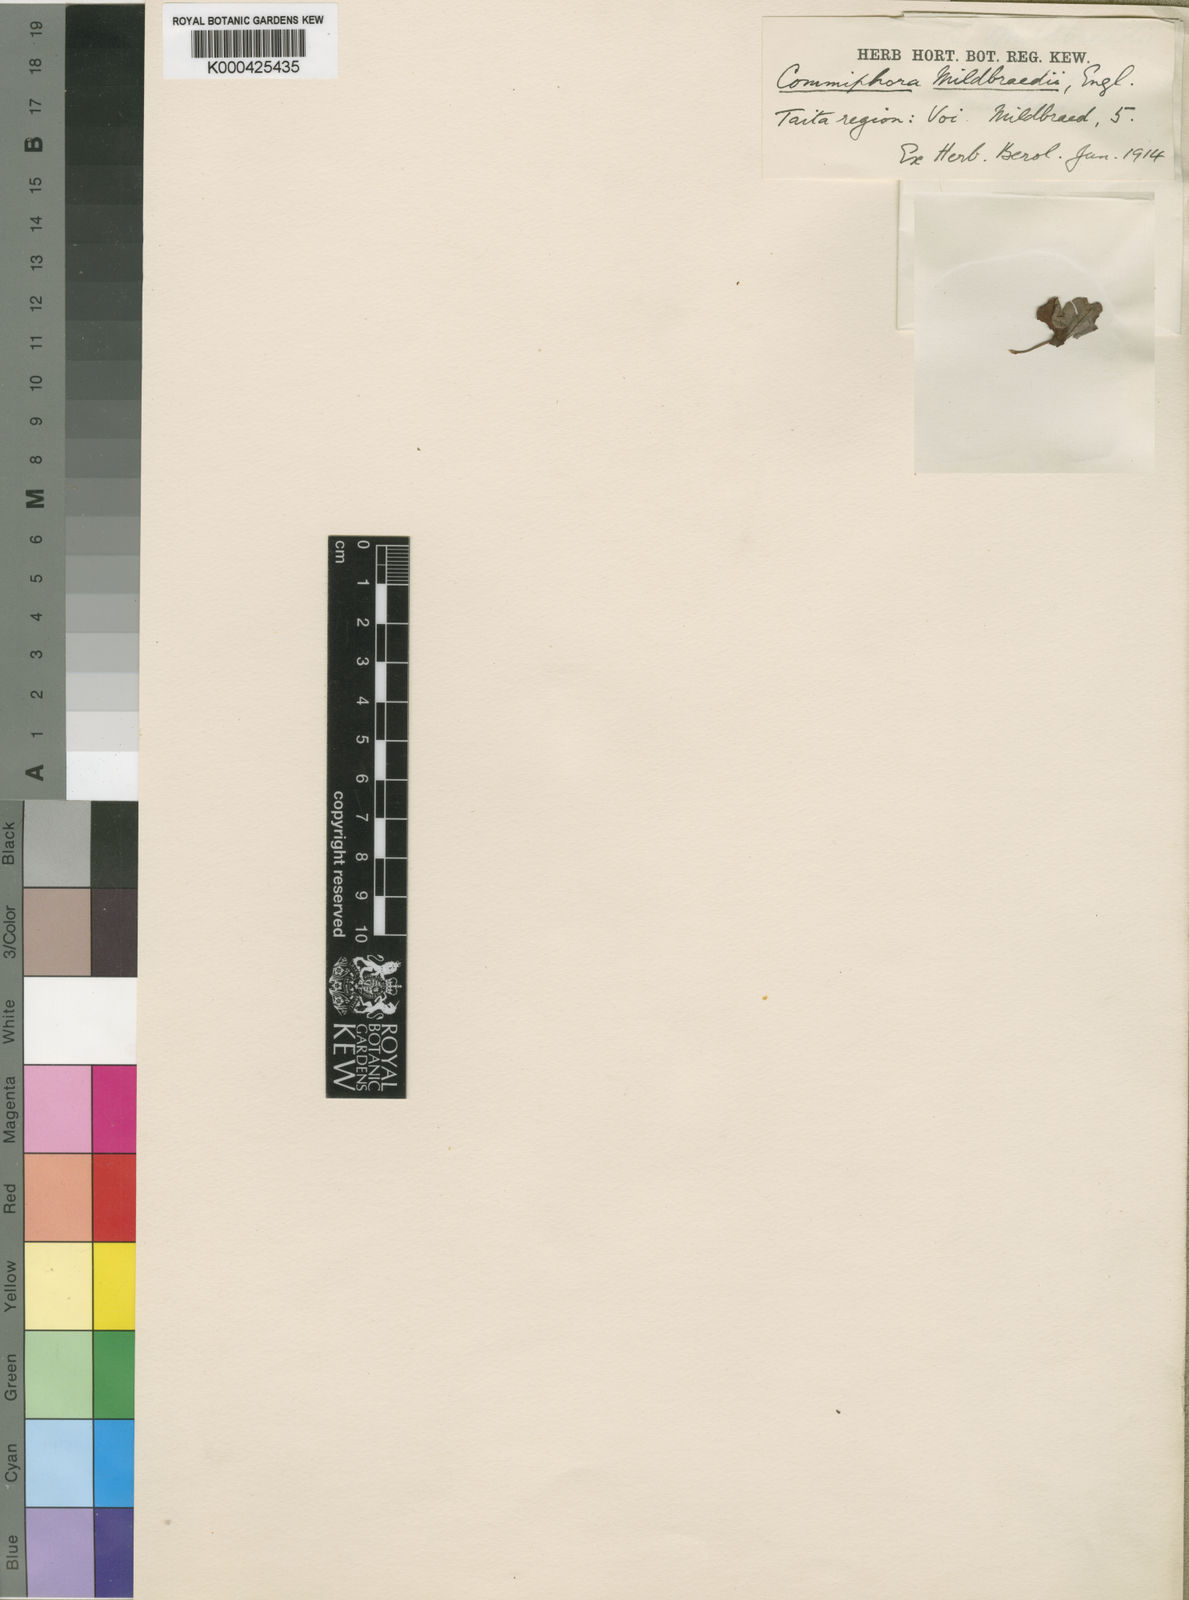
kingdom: Plantae
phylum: Tracheophyta
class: Magnoliopsida
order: Sapindales
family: Burseraceae
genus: Commiphora
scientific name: Commiphora mildbraedii
